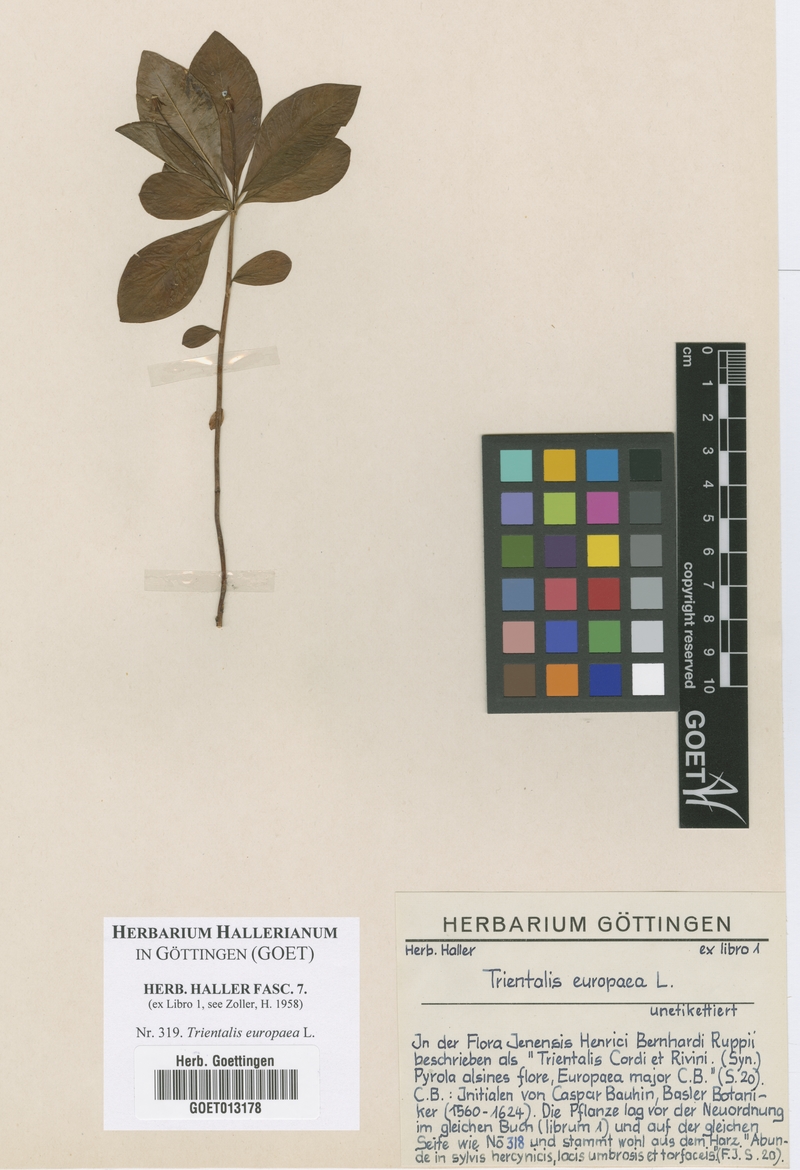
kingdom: Plantae
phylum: Tracheophyta
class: Magnoliopsida
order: Ericales
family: Primulaceae
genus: Lysimachia
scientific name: Lysimachia europaea
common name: Arctic starflower
